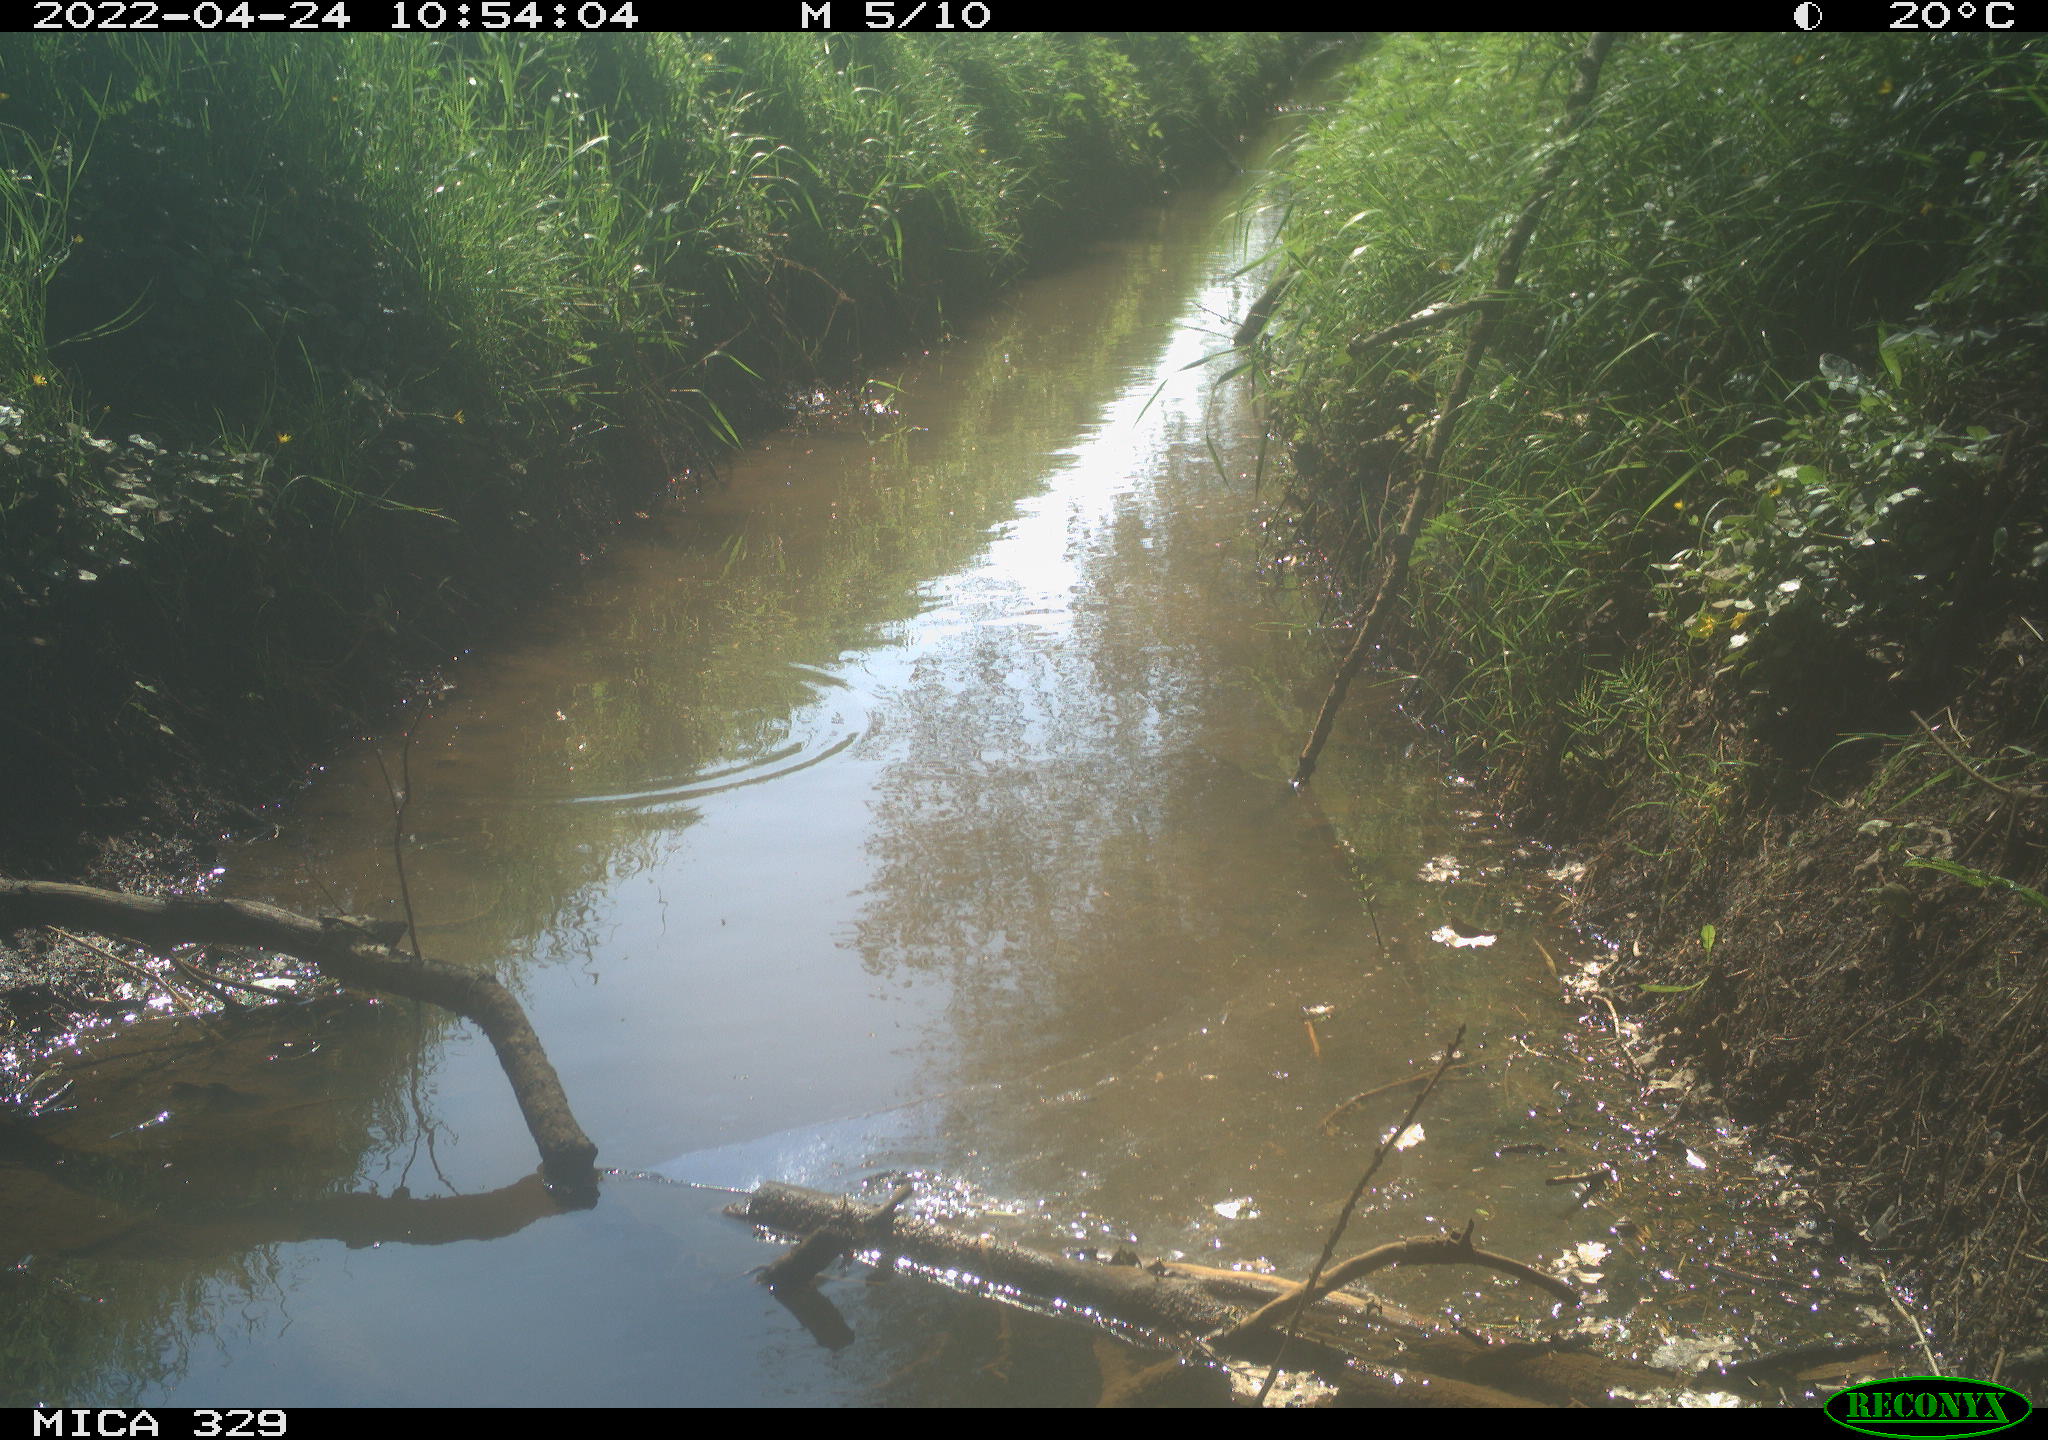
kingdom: Animalia
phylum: Chordata
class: Aves
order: Passeriformes
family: Turdidae
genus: Turdus
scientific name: Turdus merula
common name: Common blackbird
